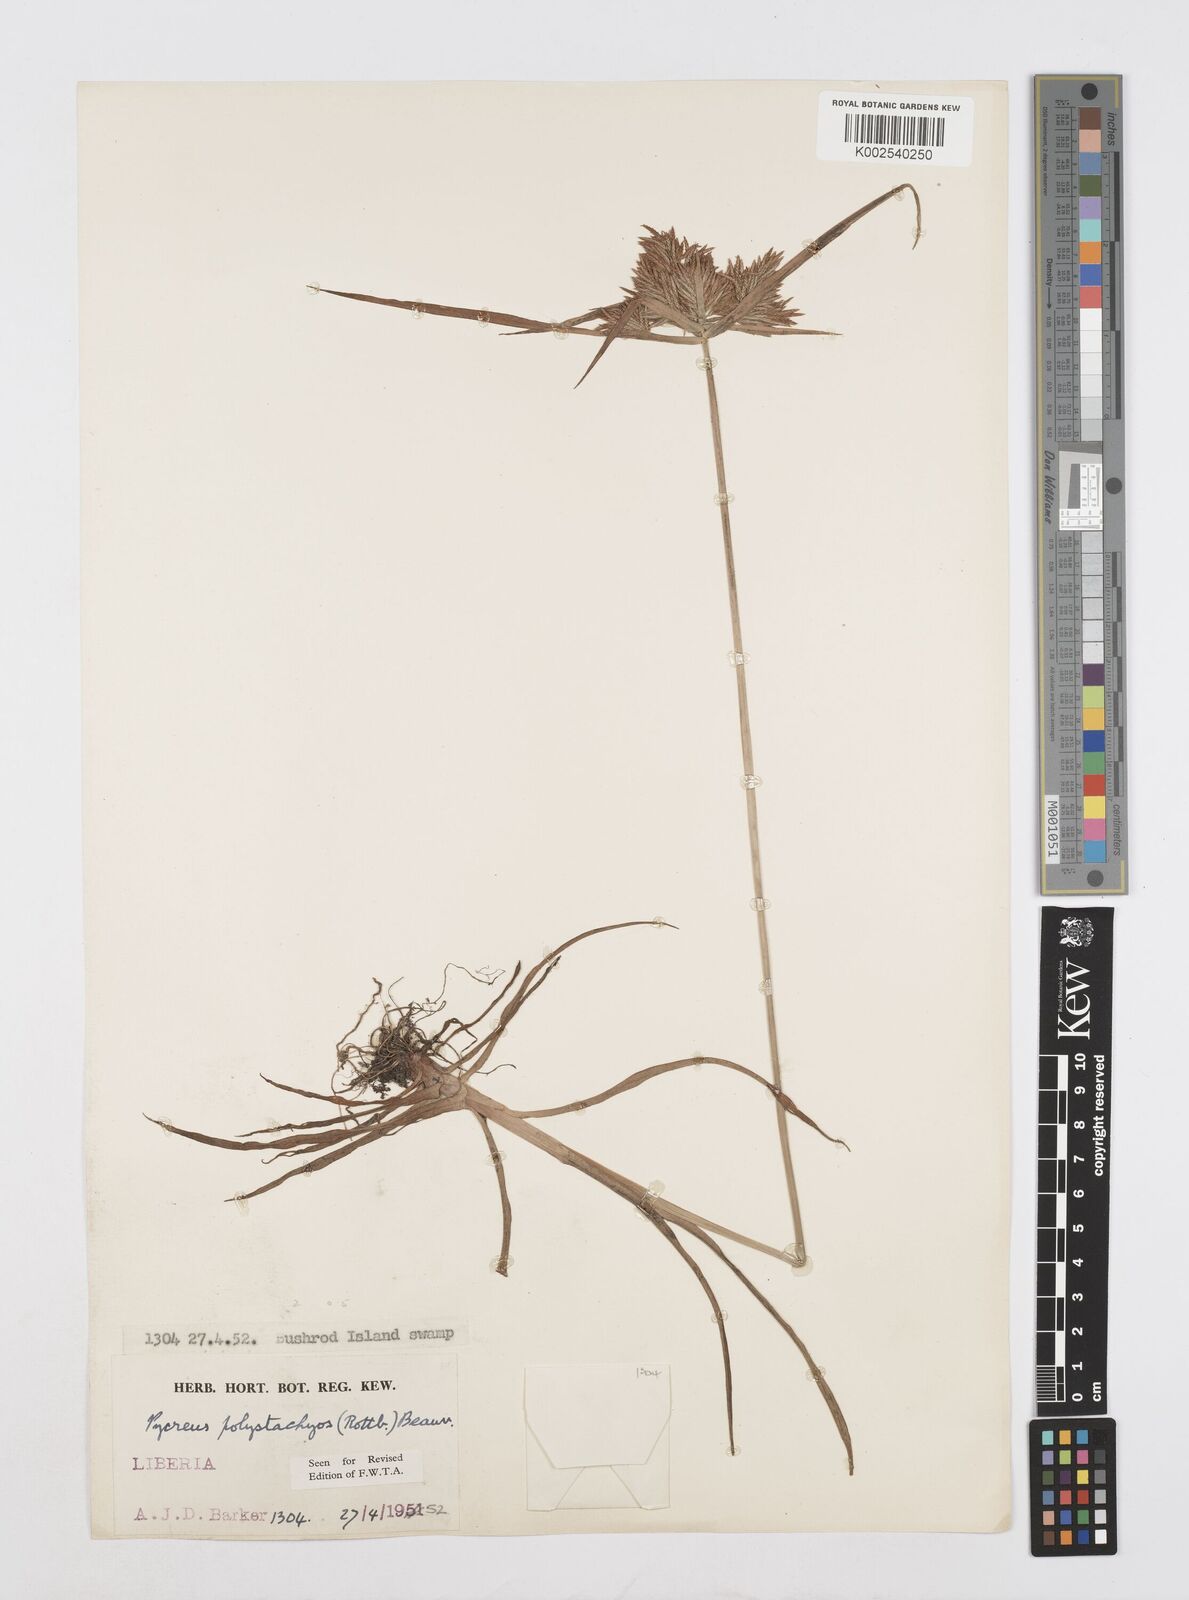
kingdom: Plantae
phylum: Tracheophyta
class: Liliopsida
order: Poales
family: Cyperaceae
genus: Cyperus
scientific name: Cyperus polystachyos
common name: Bunchy flat sedge
